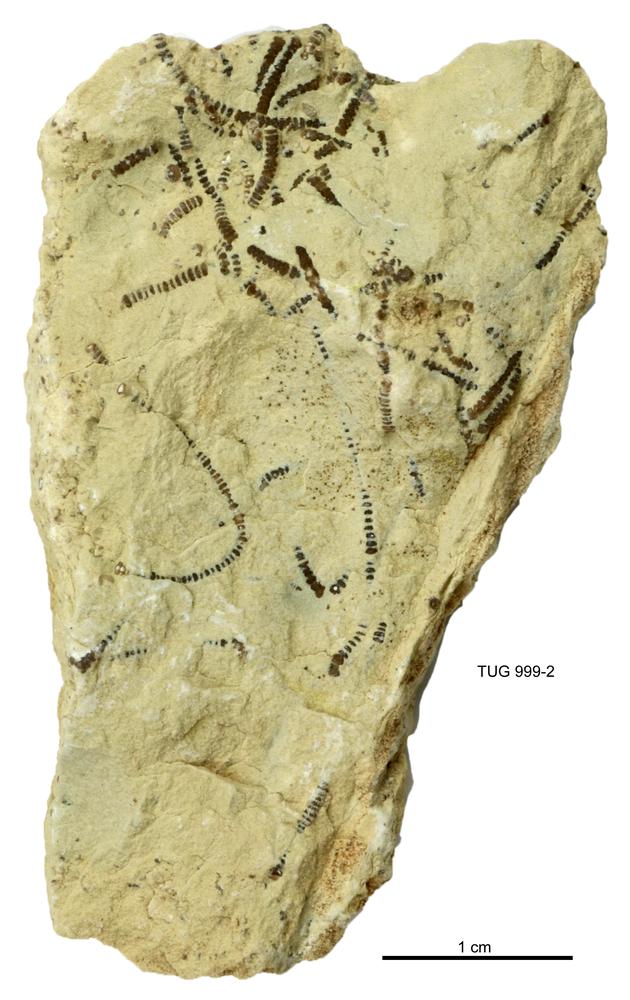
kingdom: Animalia
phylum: Echinodermata
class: Crinoidea
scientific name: Crinoidea
